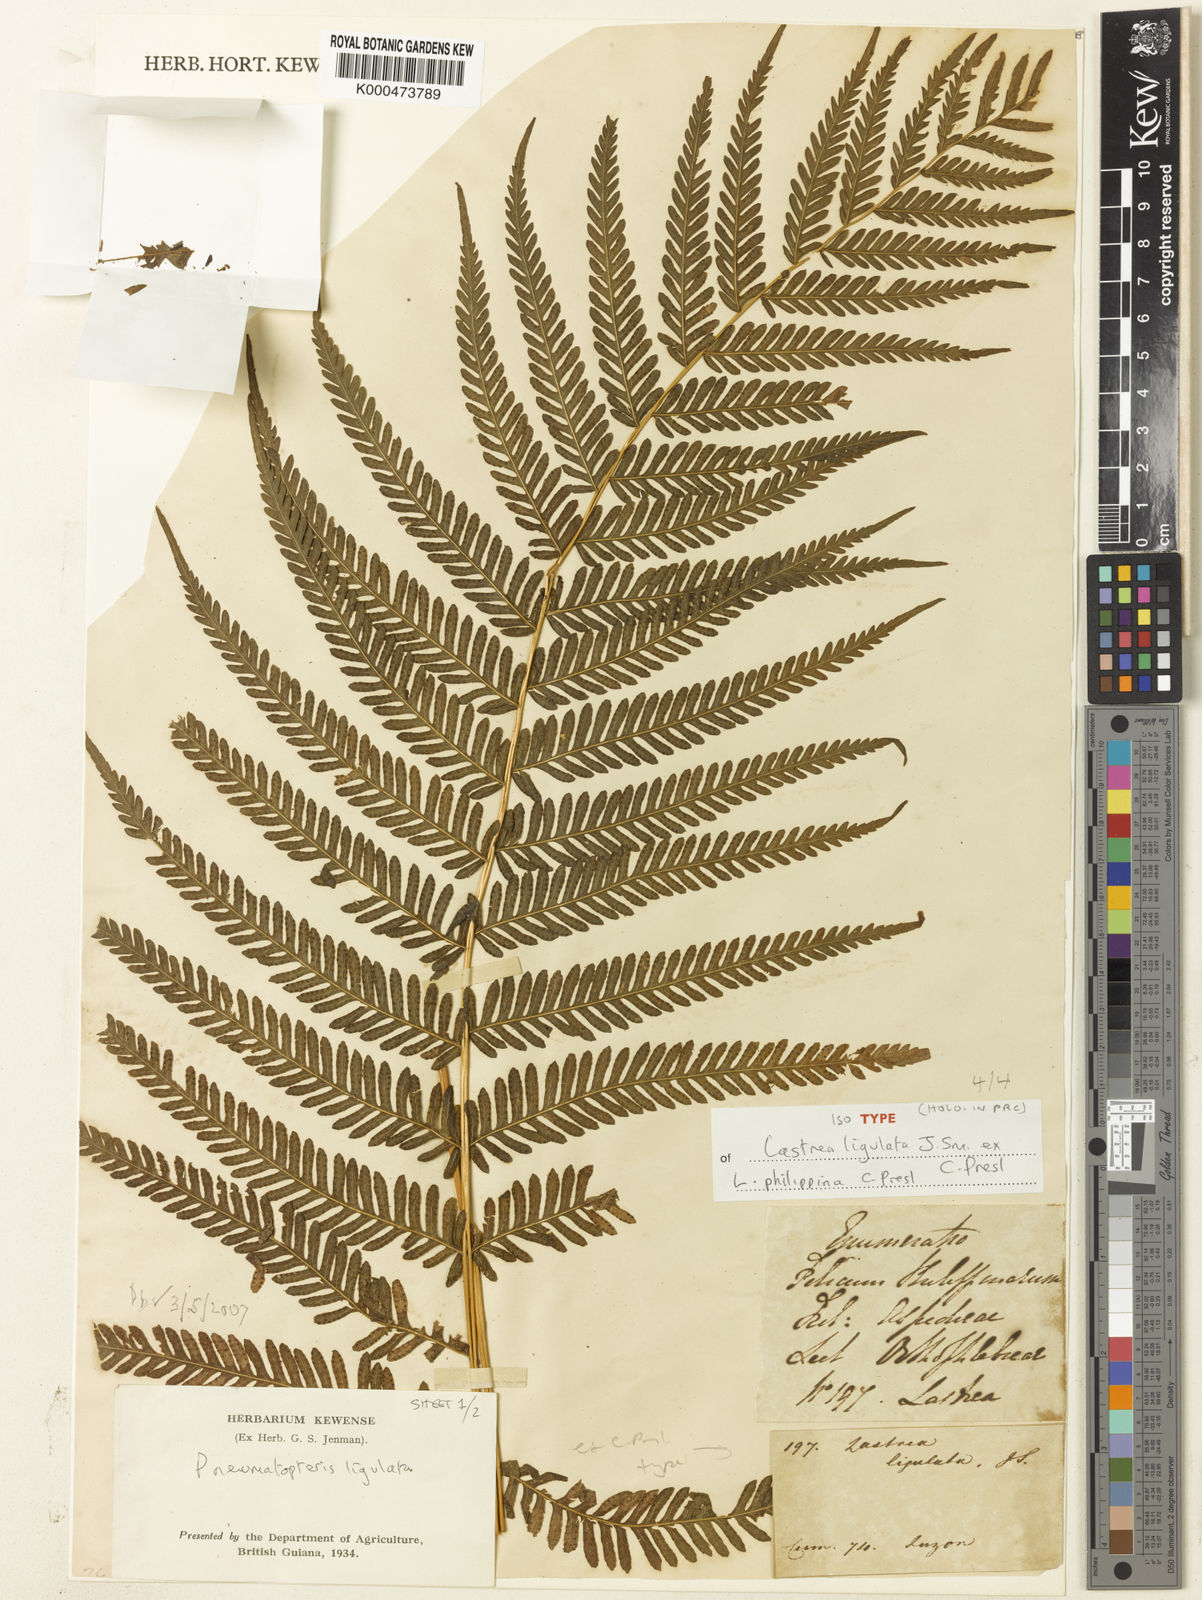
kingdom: Plantae
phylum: Tracheophyta
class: Polypodiopsida
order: Polypodiales
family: Thelypteridaceae
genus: Plesioneuron
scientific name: Plesioneuron ligulatum
